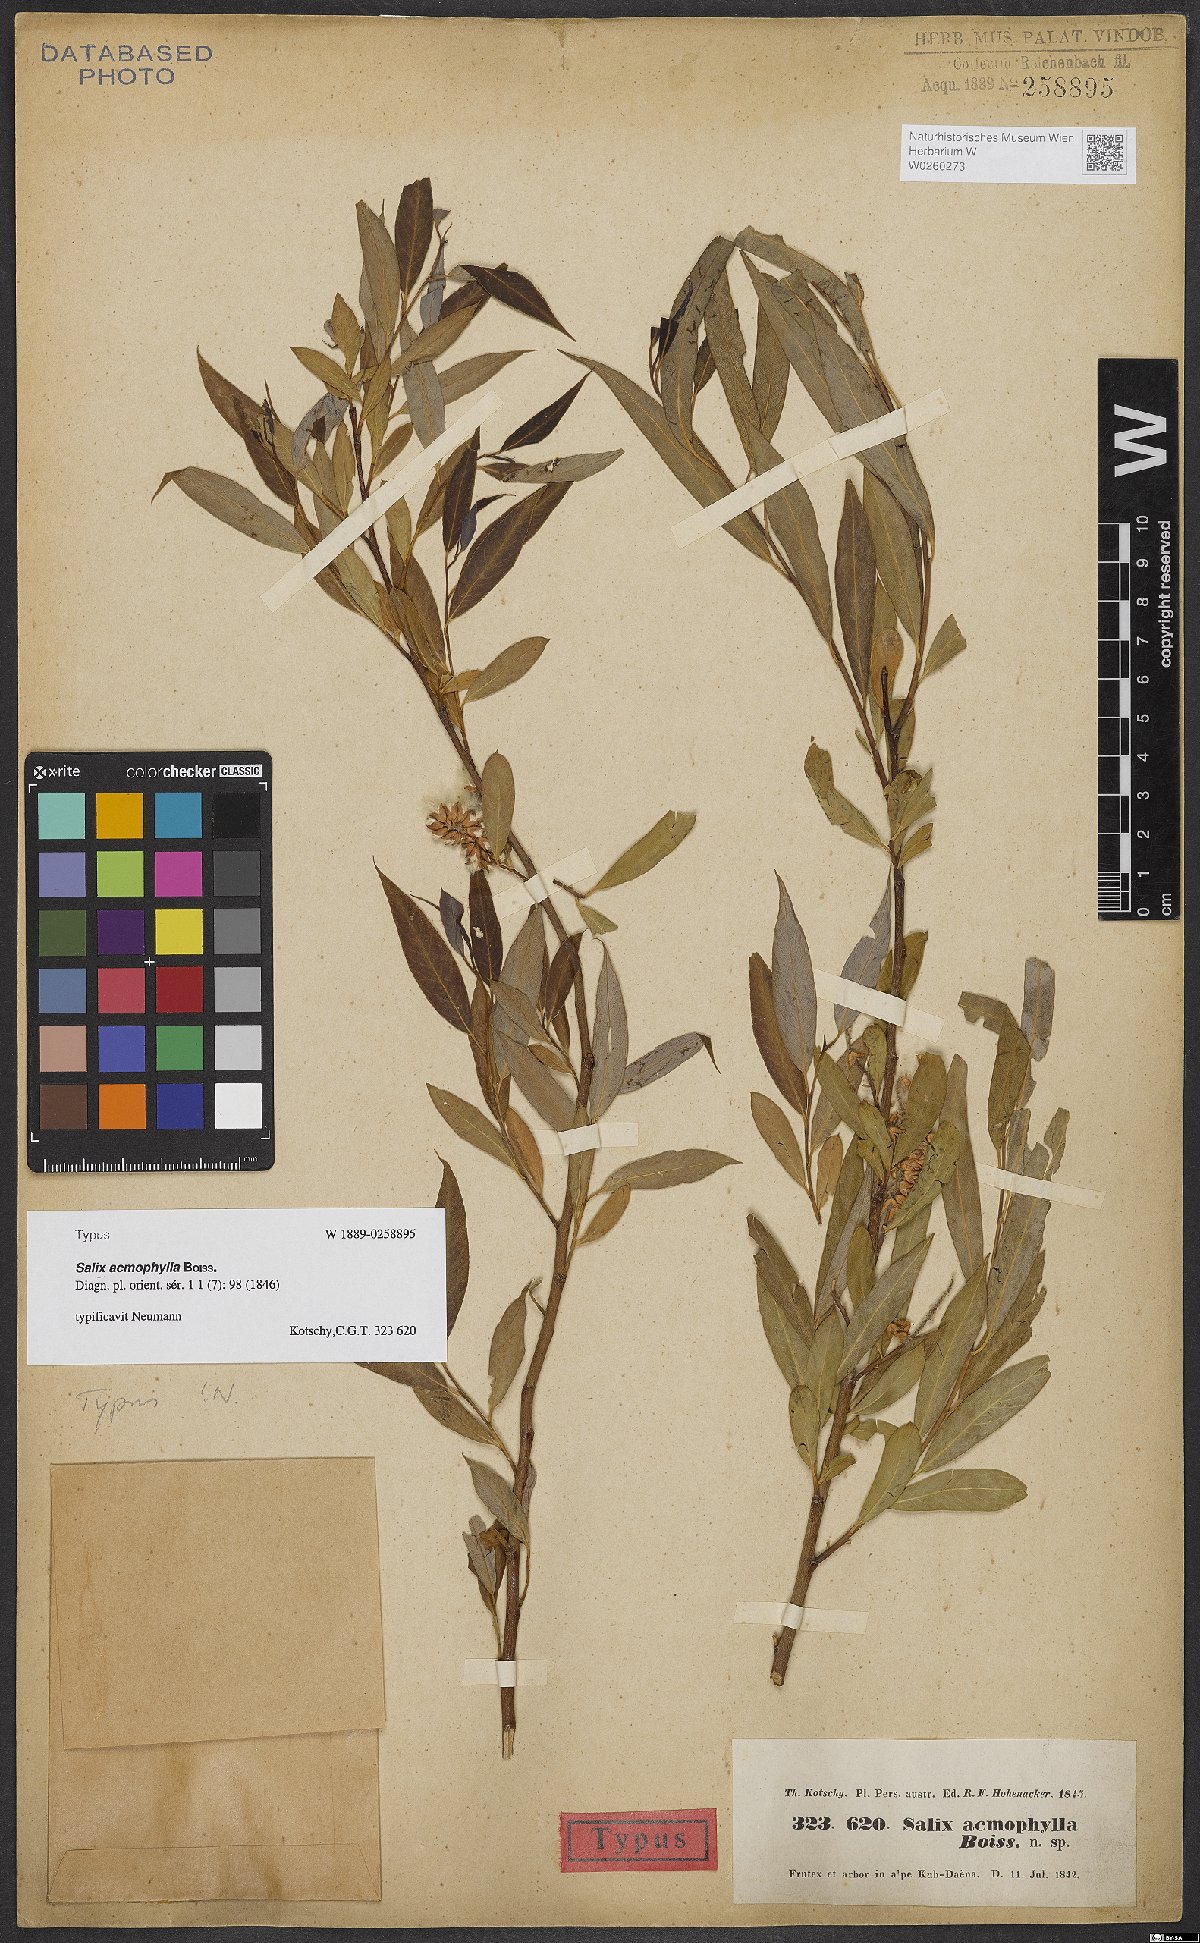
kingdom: Plantae
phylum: Tracheophyta
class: Magnoliopsida
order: Malpighiales
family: Salicaceae
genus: Salix
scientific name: Salix acmophylla
